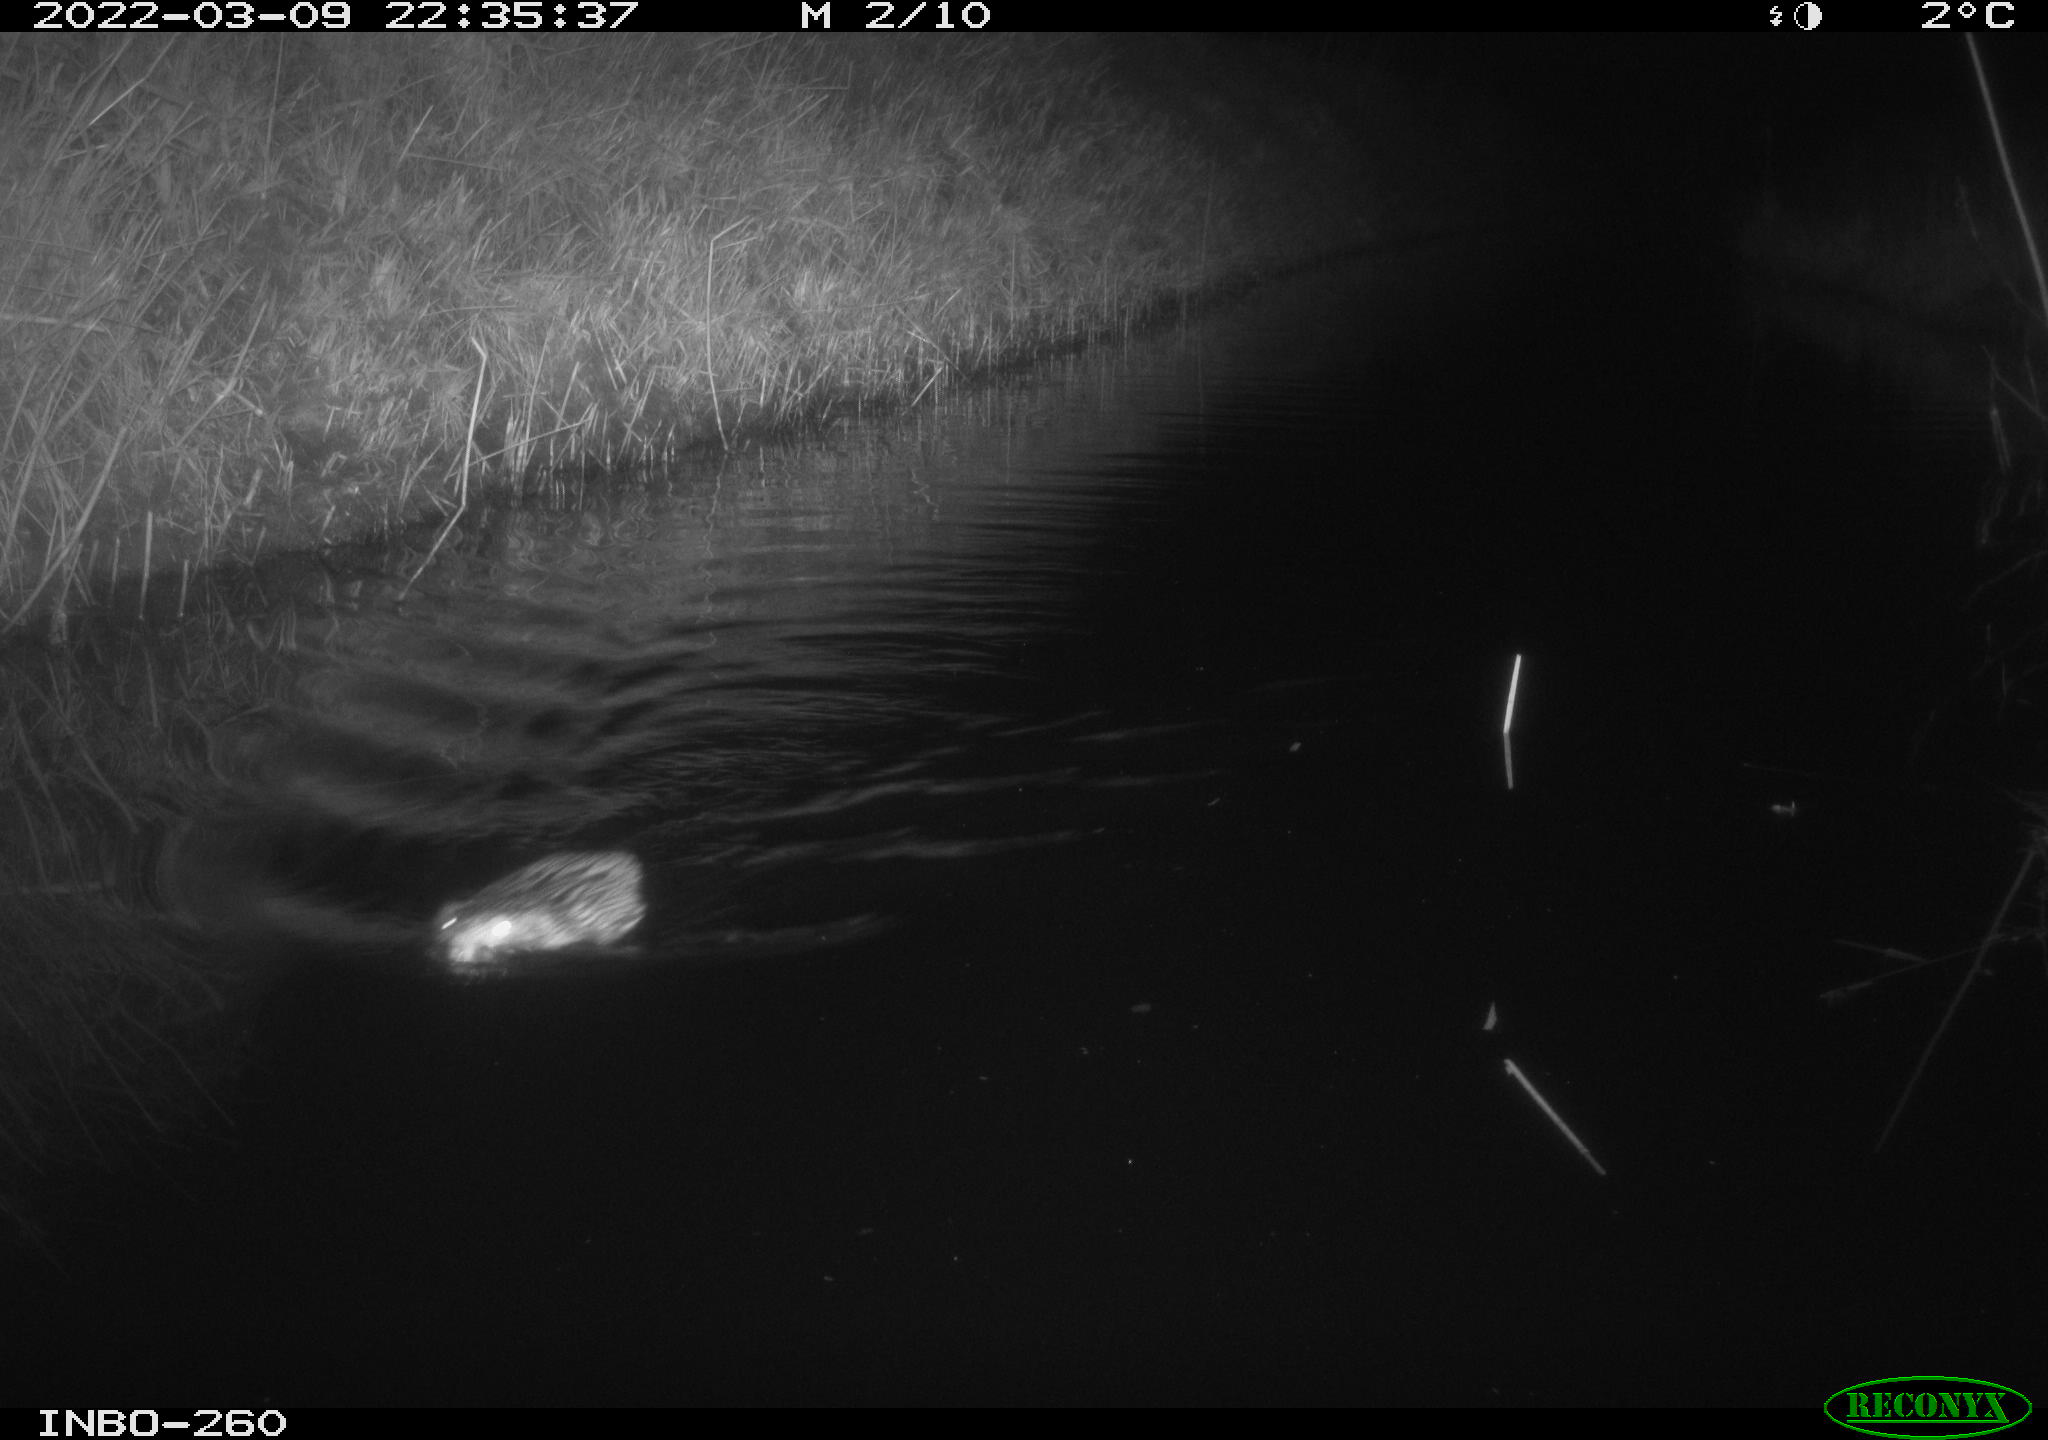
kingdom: Animalia
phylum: Chordata
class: Mammalia
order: Rodentia
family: Cricetidae
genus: Ondatra
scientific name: Ondatra zibethicus
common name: Muskrat
